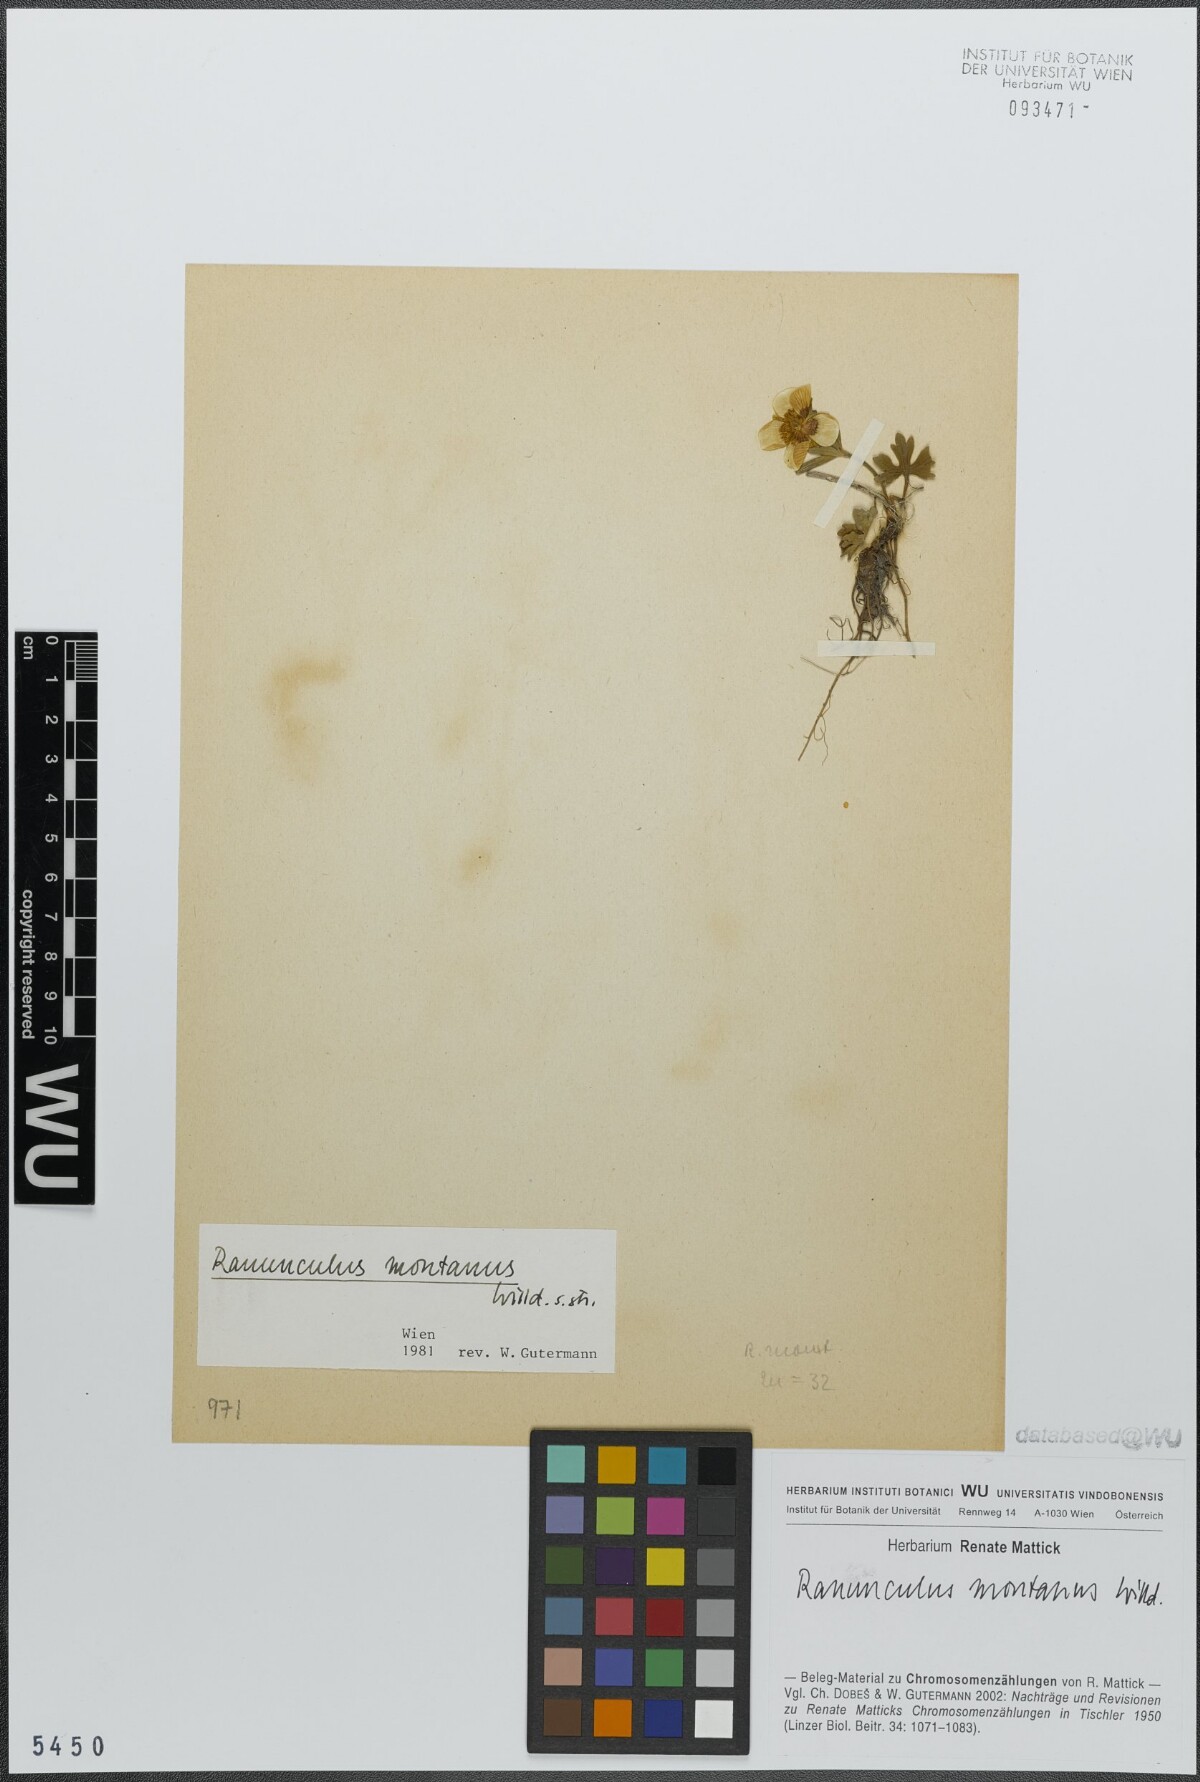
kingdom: Plantae
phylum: Tracheophyta
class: Magnoliopsida
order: Ranunculales
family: Ranunculaceae
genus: Ranunculus
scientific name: Ranunculus montanus
